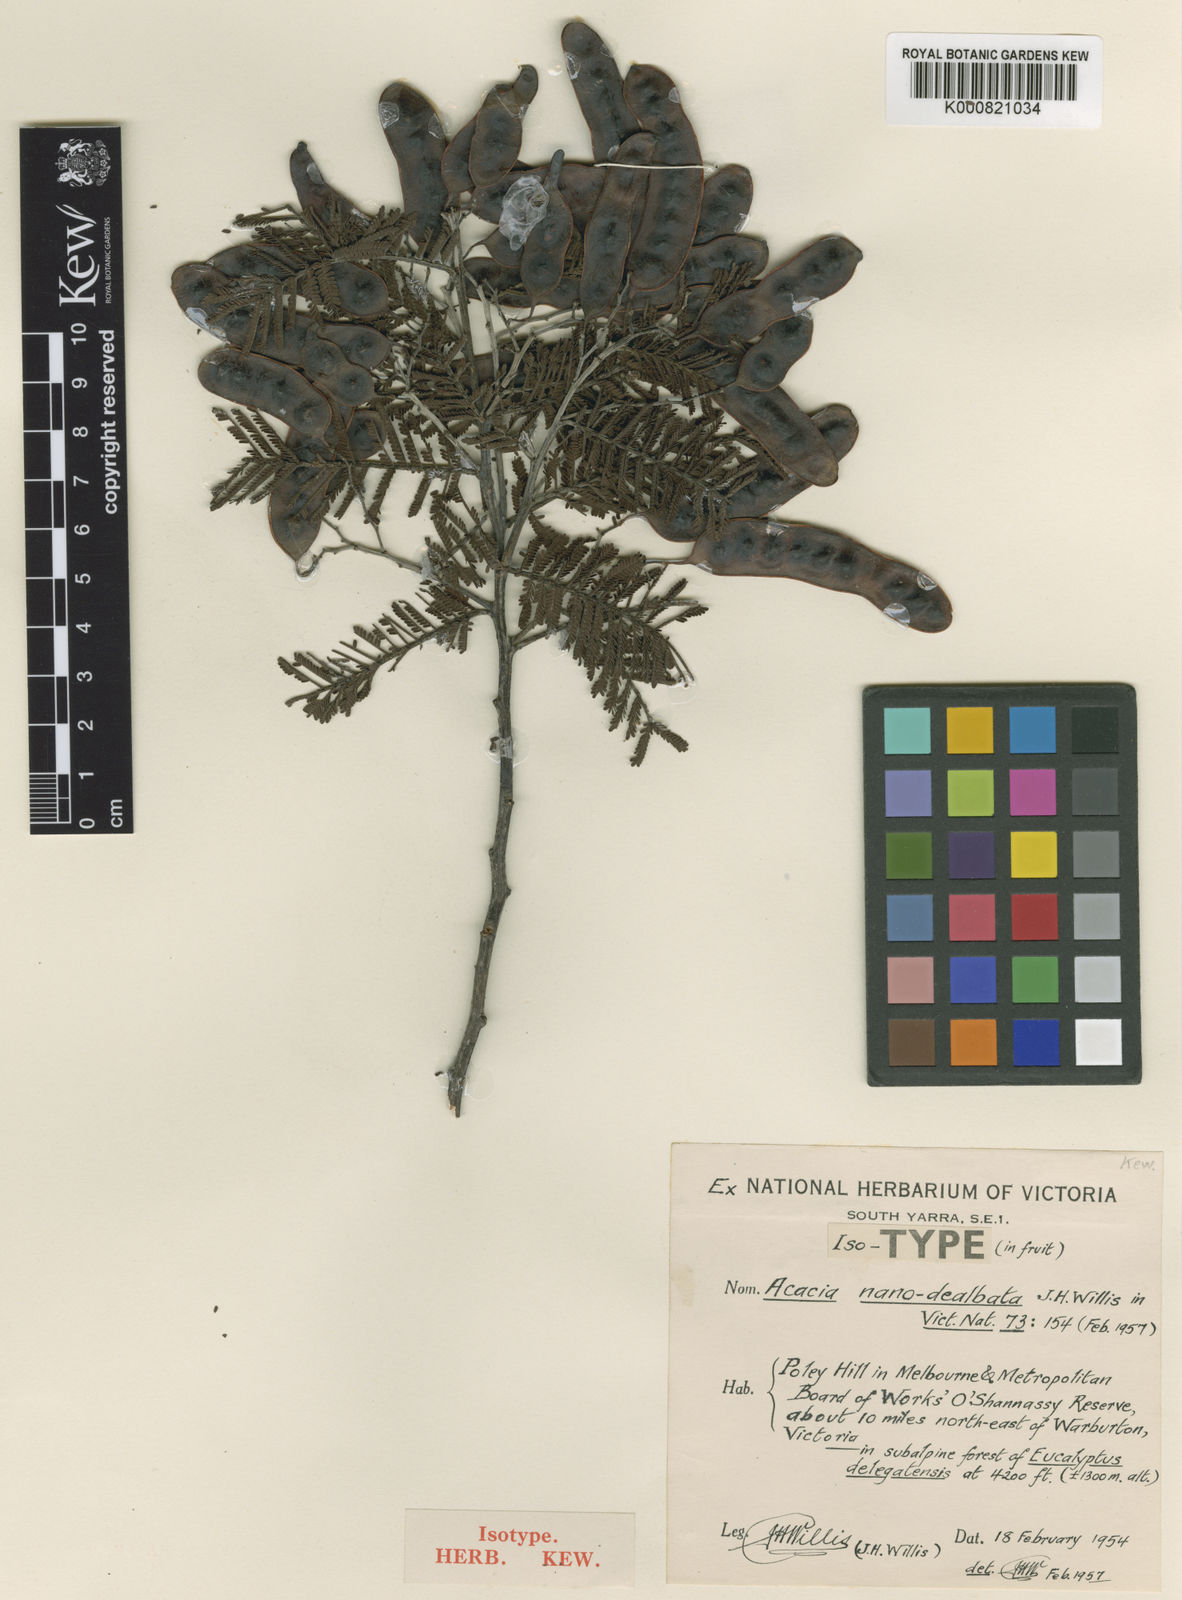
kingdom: Plantae
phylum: Tracheophyta
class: Magnoliopsida
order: Fabales
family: Fabaceae
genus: Acacia
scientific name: Acacia nanodealbata
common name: Dwarf silver-wattle
